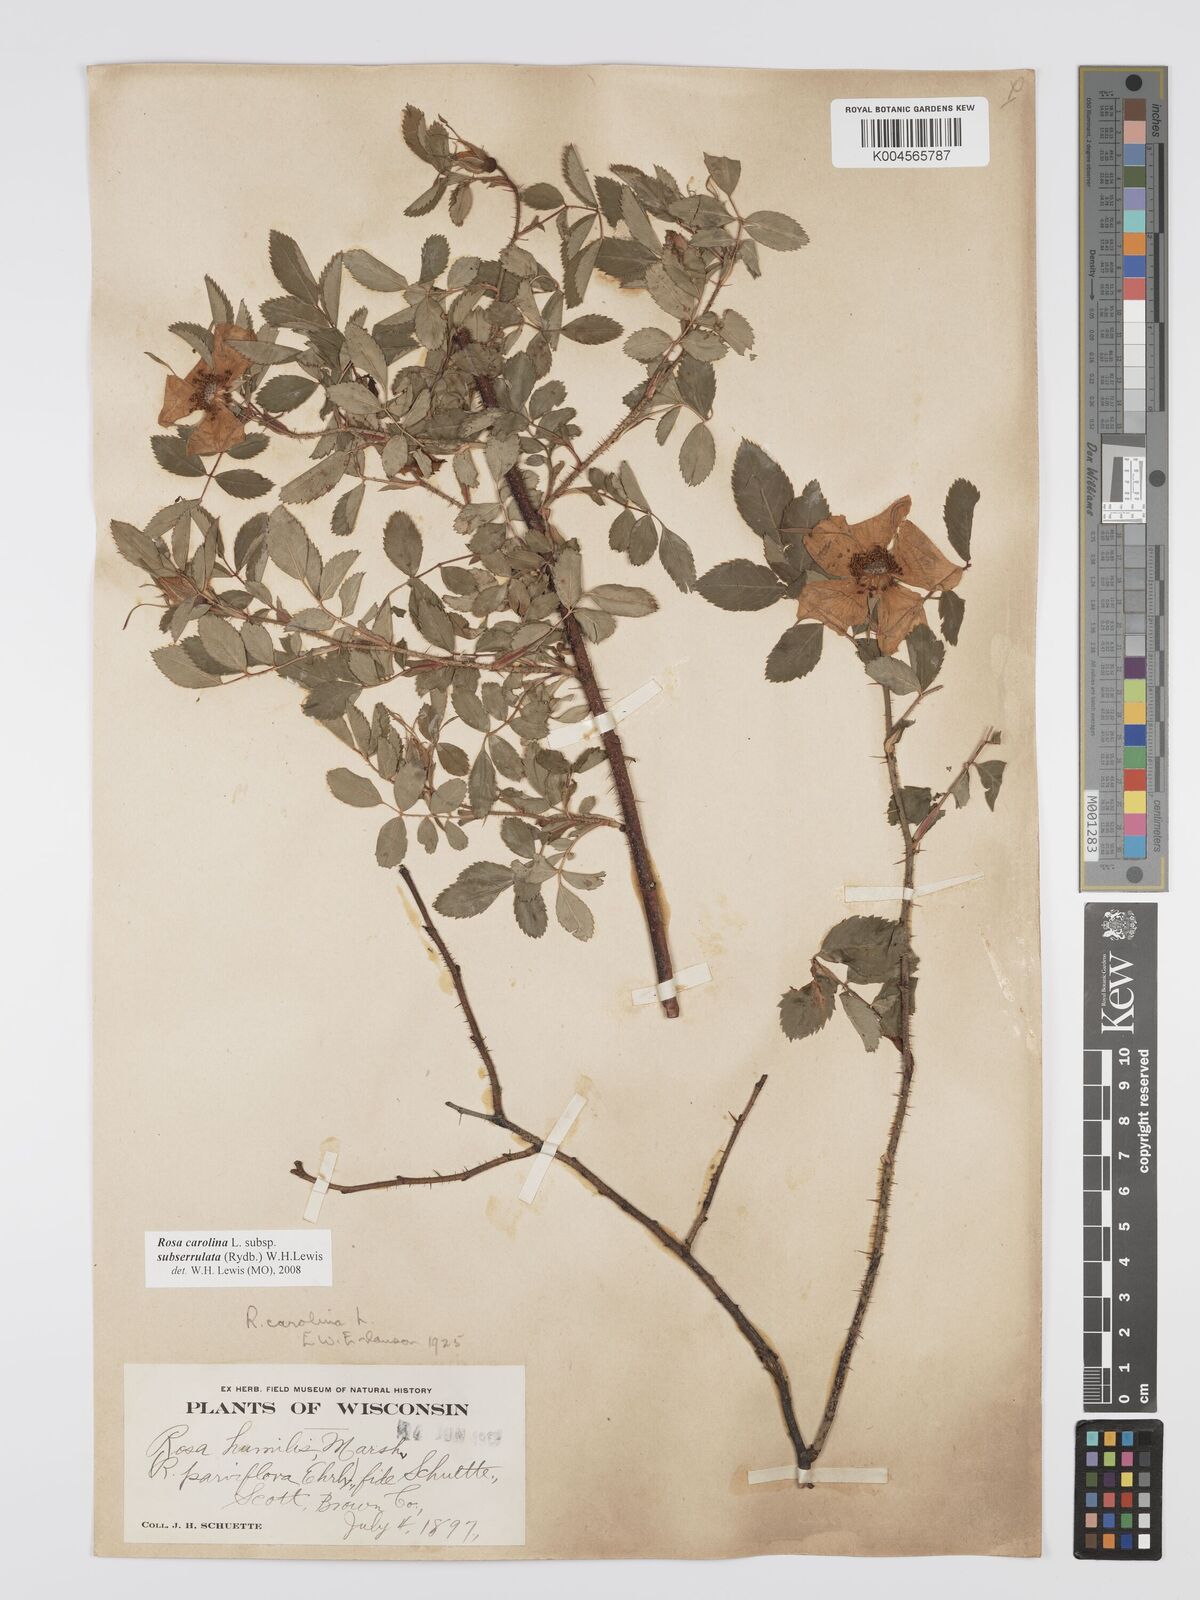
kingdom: Plantae
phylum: Tracheophyta
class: Magnoliopsida
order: Rosales
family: Rosaceae
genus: Rosa
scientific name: Rosa carolina
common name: Pasture rose
